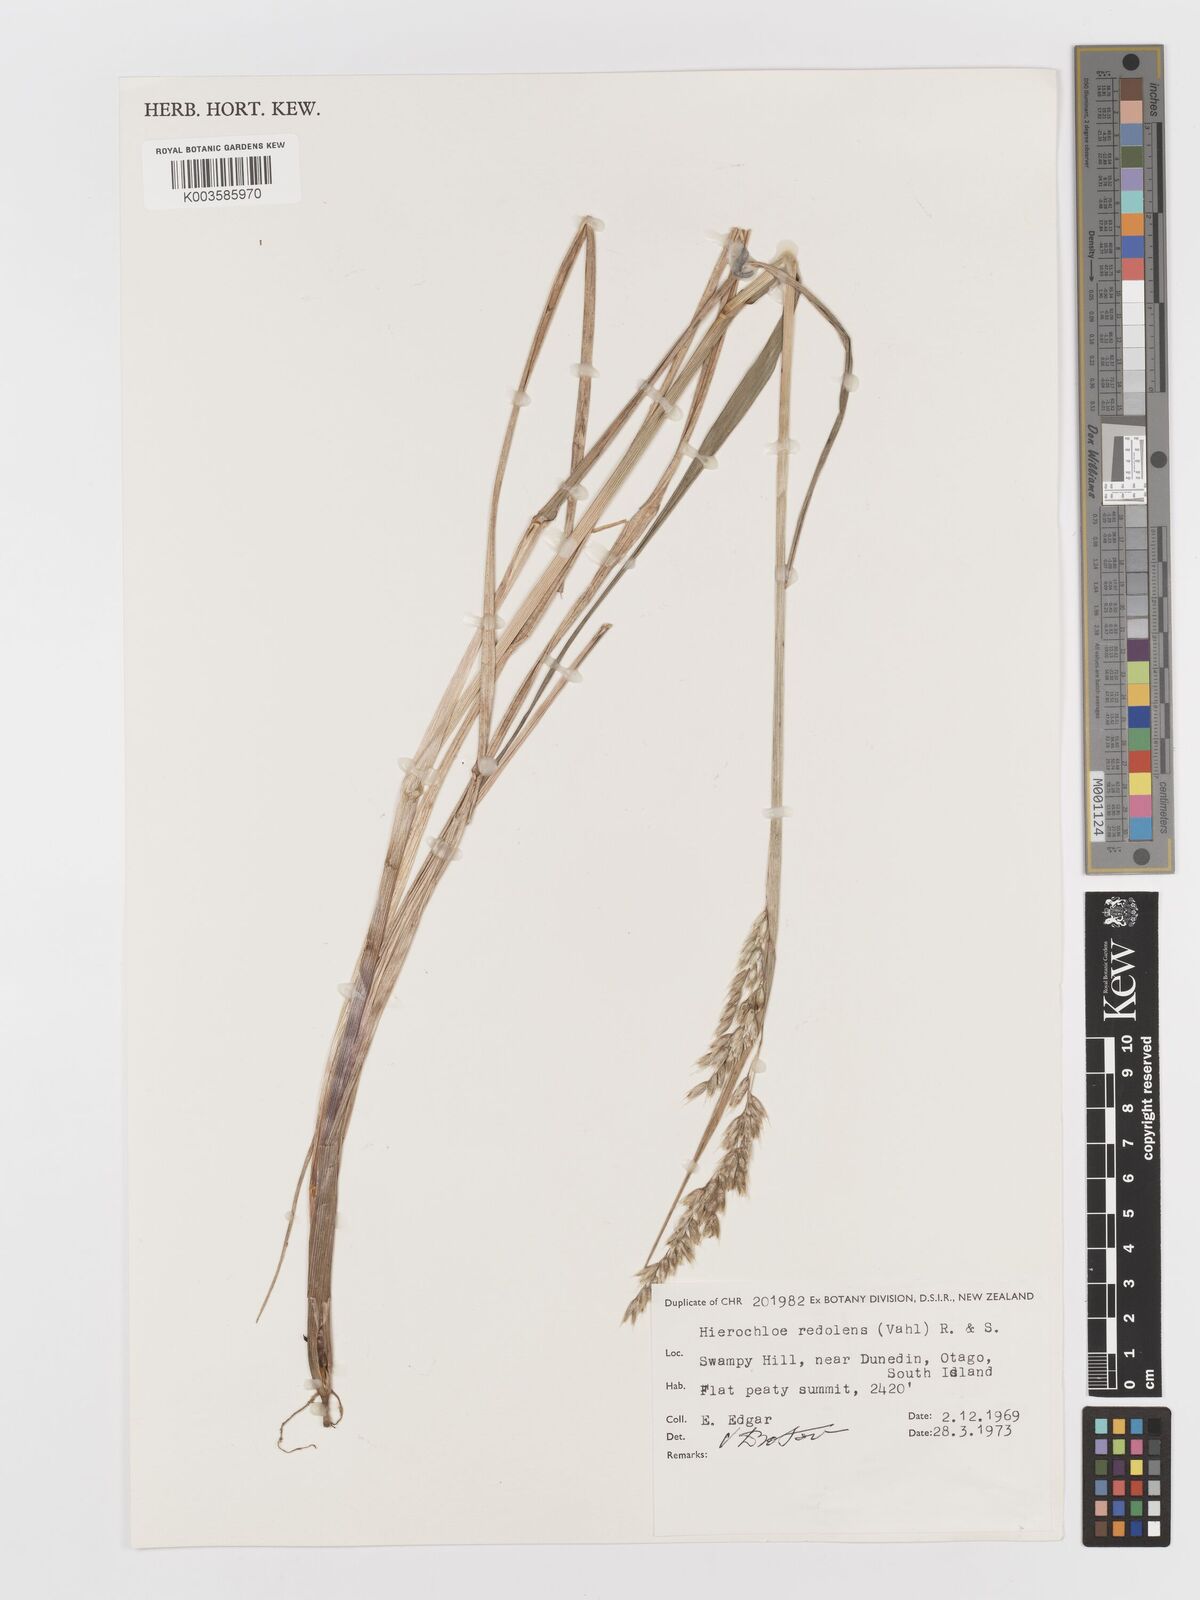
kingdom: Plantae
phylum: Tracheophyta
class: Liliopsida
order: Poales
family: Poaceae
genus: Anthoxanthum
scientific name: Anthoxanthum redolens
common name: Sweet holy grass
